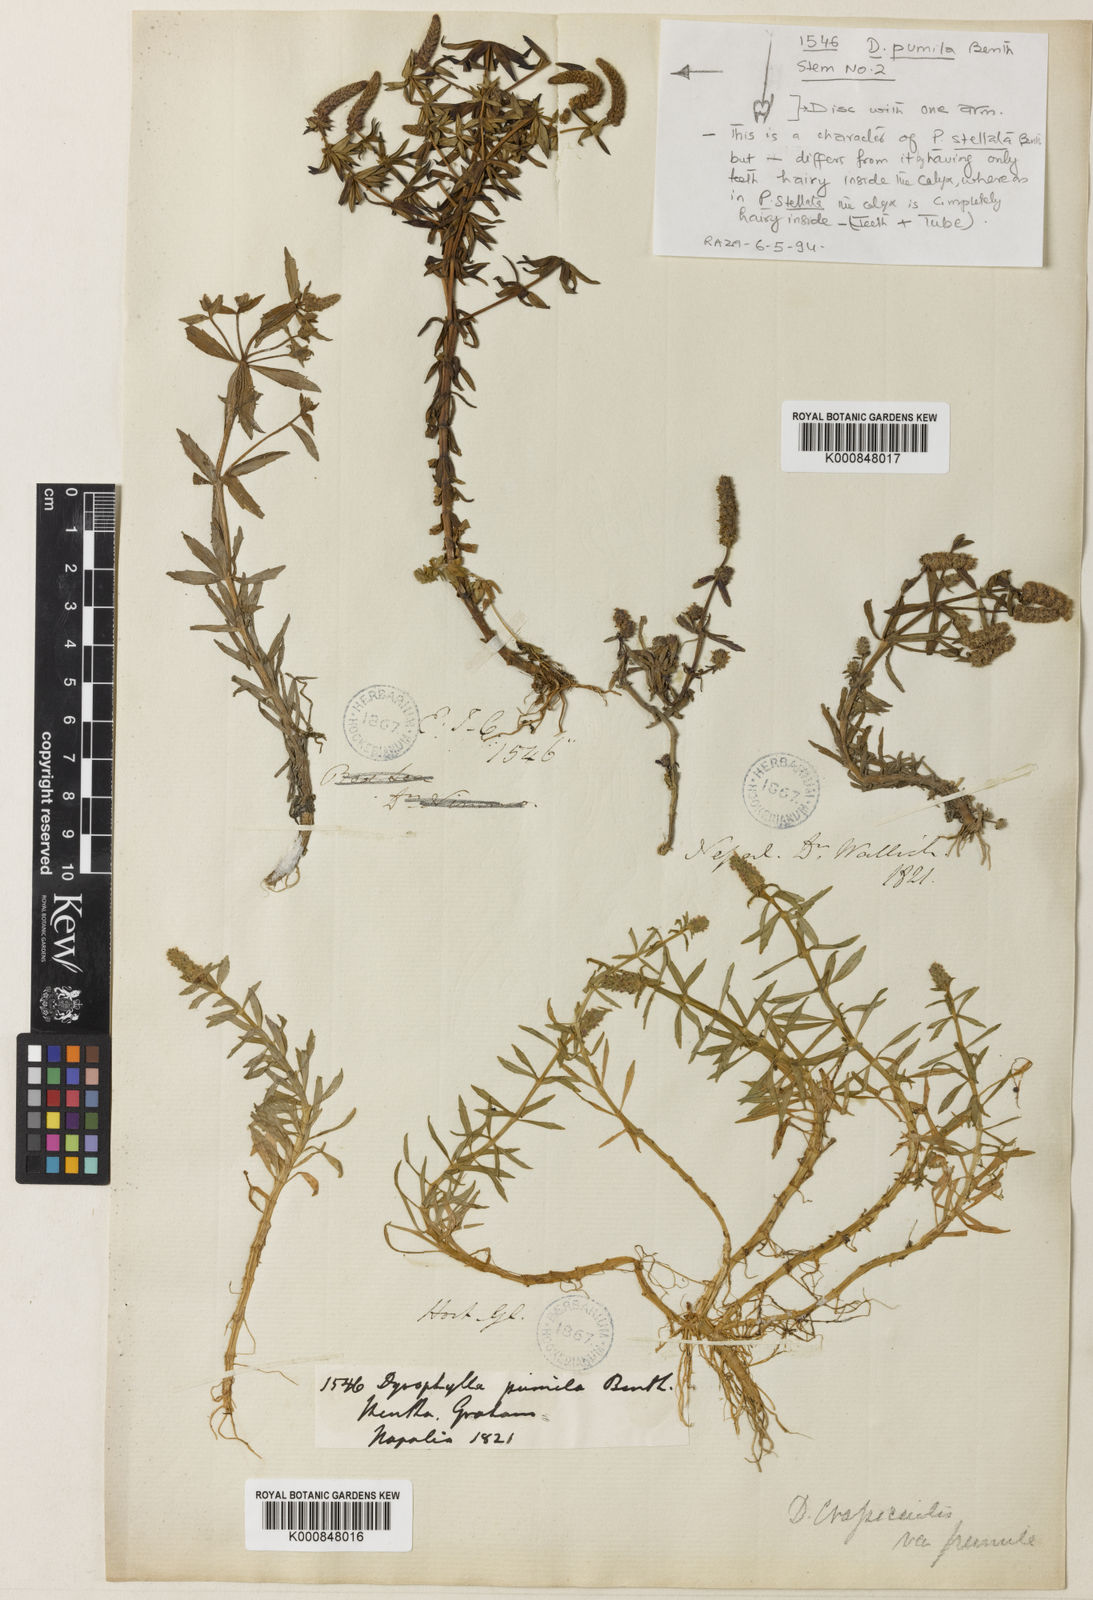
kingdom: Plantae
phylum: Tracheophyta
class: Magnoliopsida
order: Lamiales
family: Lamiaceae
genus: Pogostemon
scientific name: Pogostemon crassicaulis
